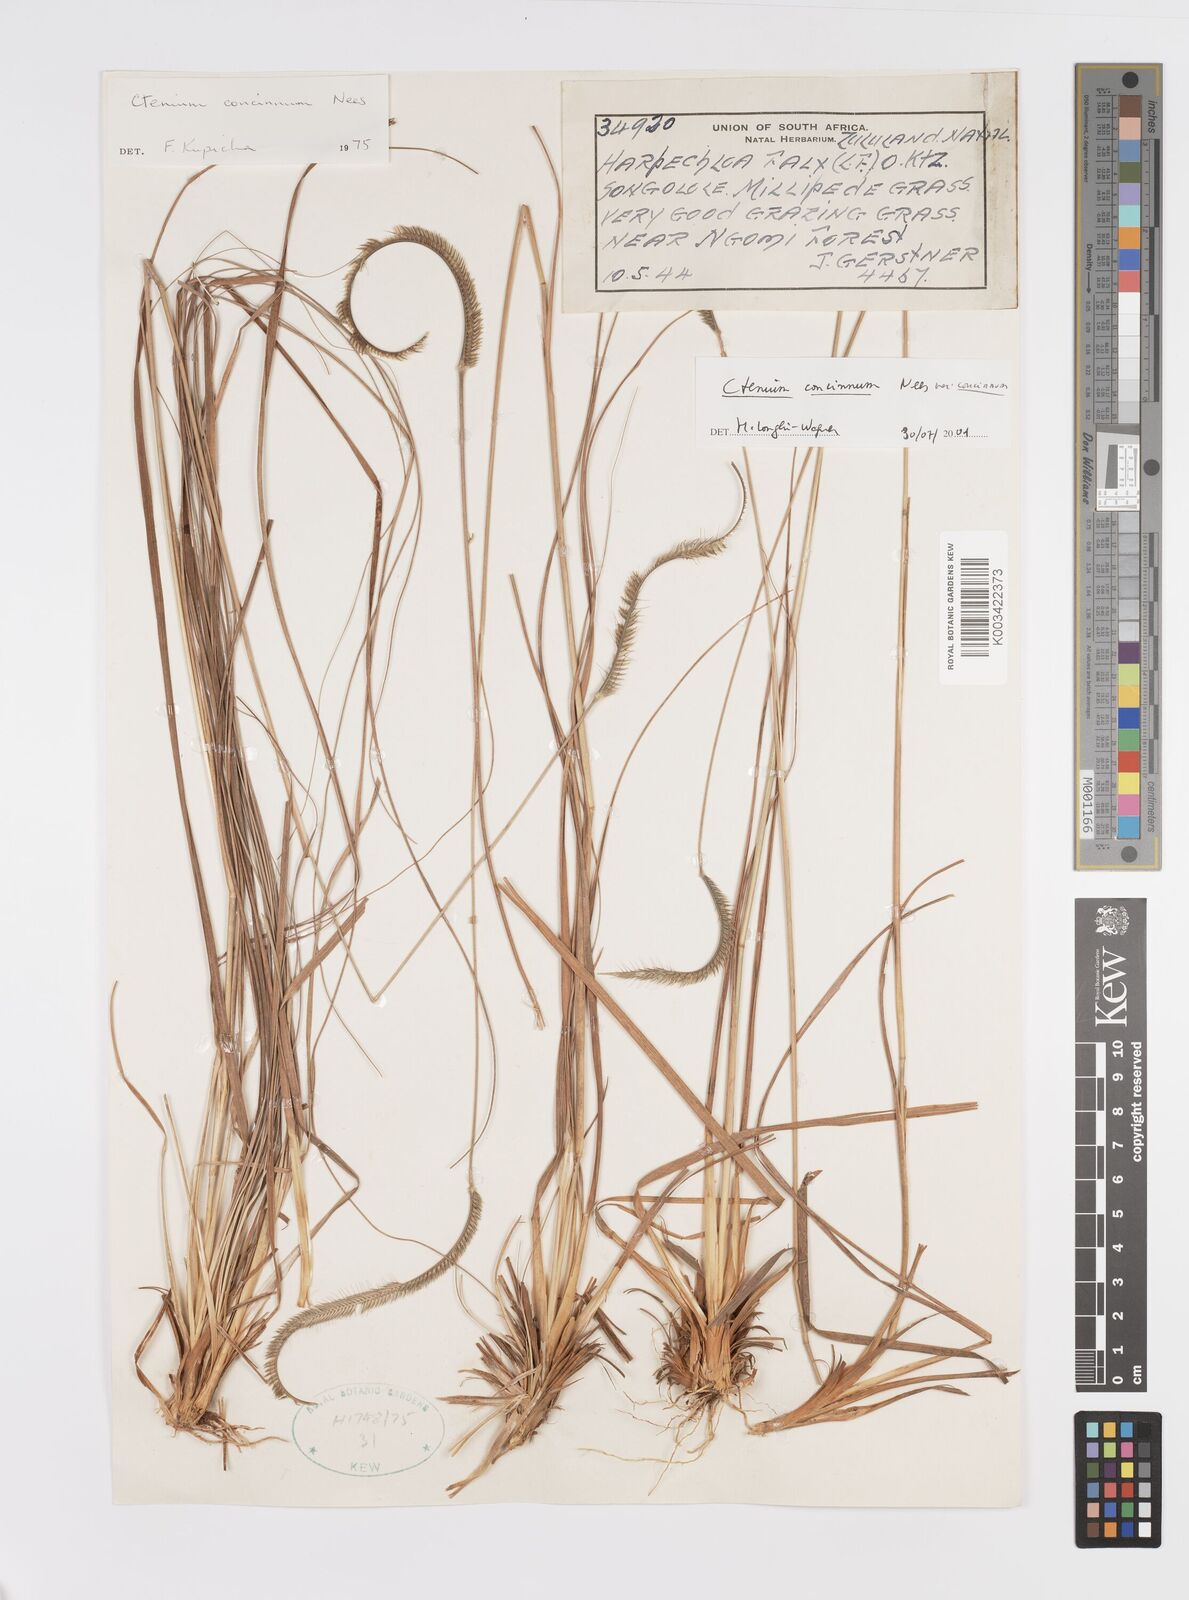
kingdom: Plantae
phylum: Tracheophyta
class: Liliopsida
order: Poales
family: Poaceae
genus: Ctenium
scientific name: Ctenium concinnum
